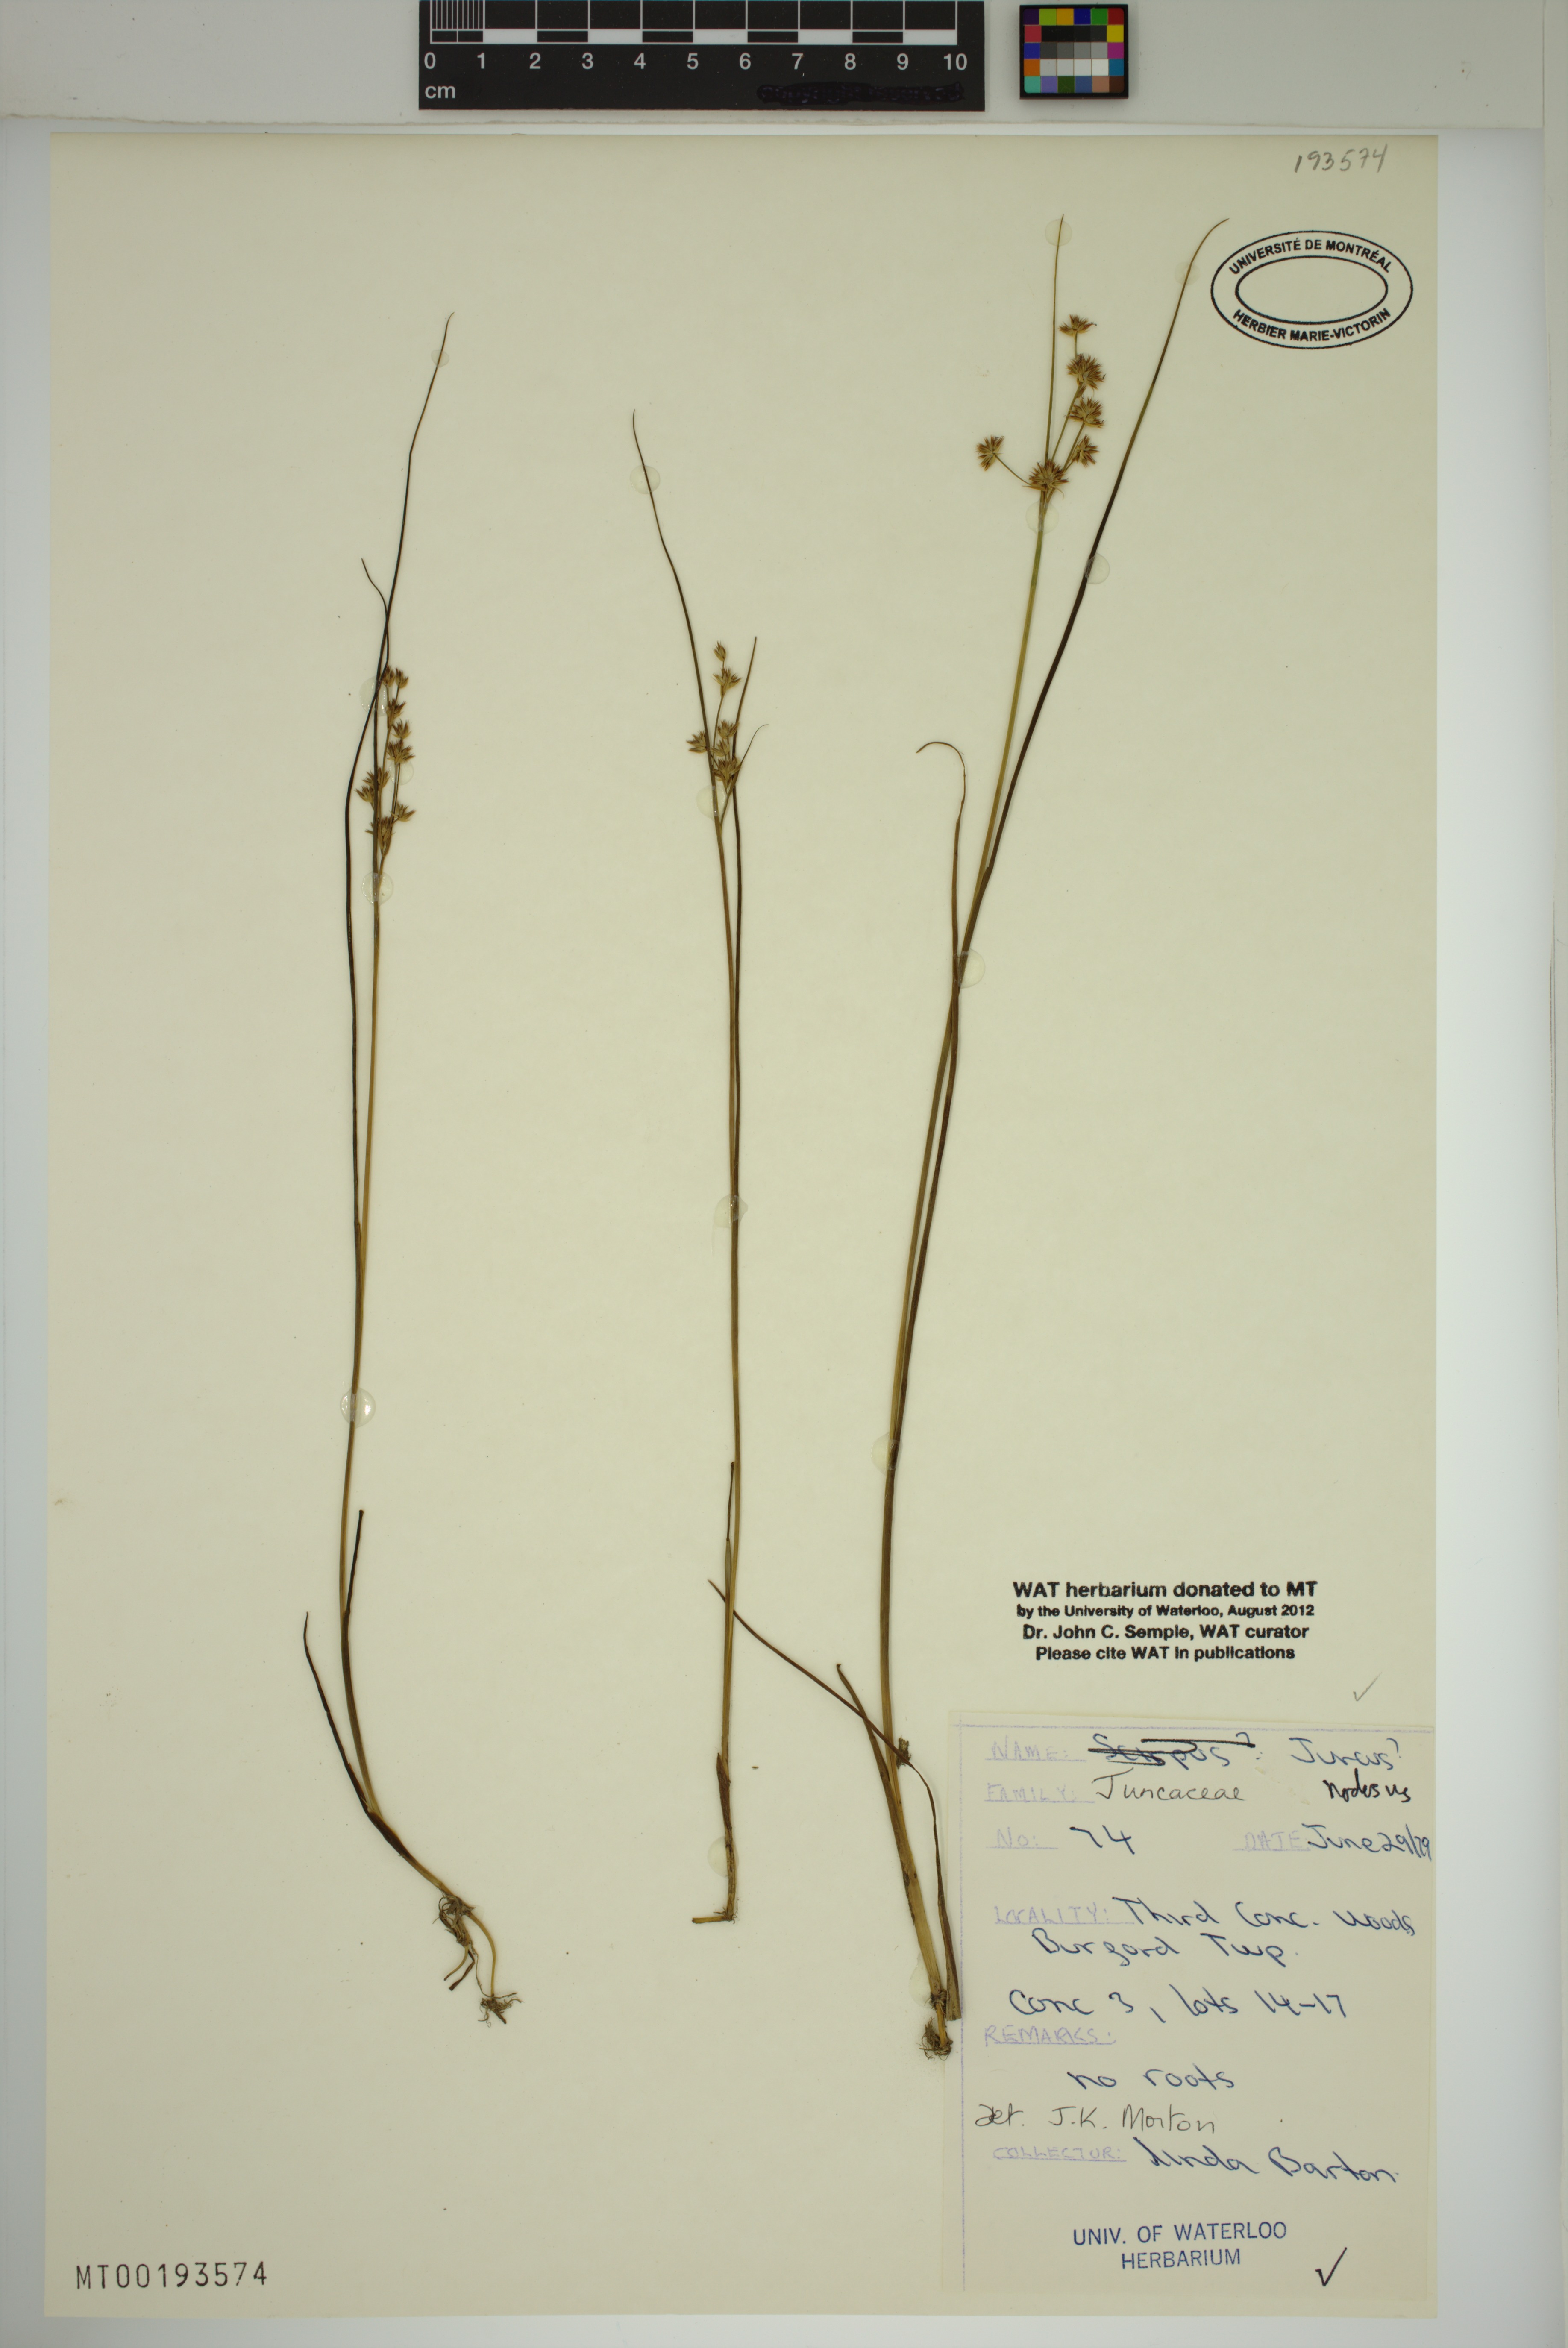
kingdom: Plantae
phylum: Tracheophyta
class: Liliopsida
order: Poales
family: Juncaceae
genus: Juncus
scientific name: Juncus nodosus
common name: Knotted rush
